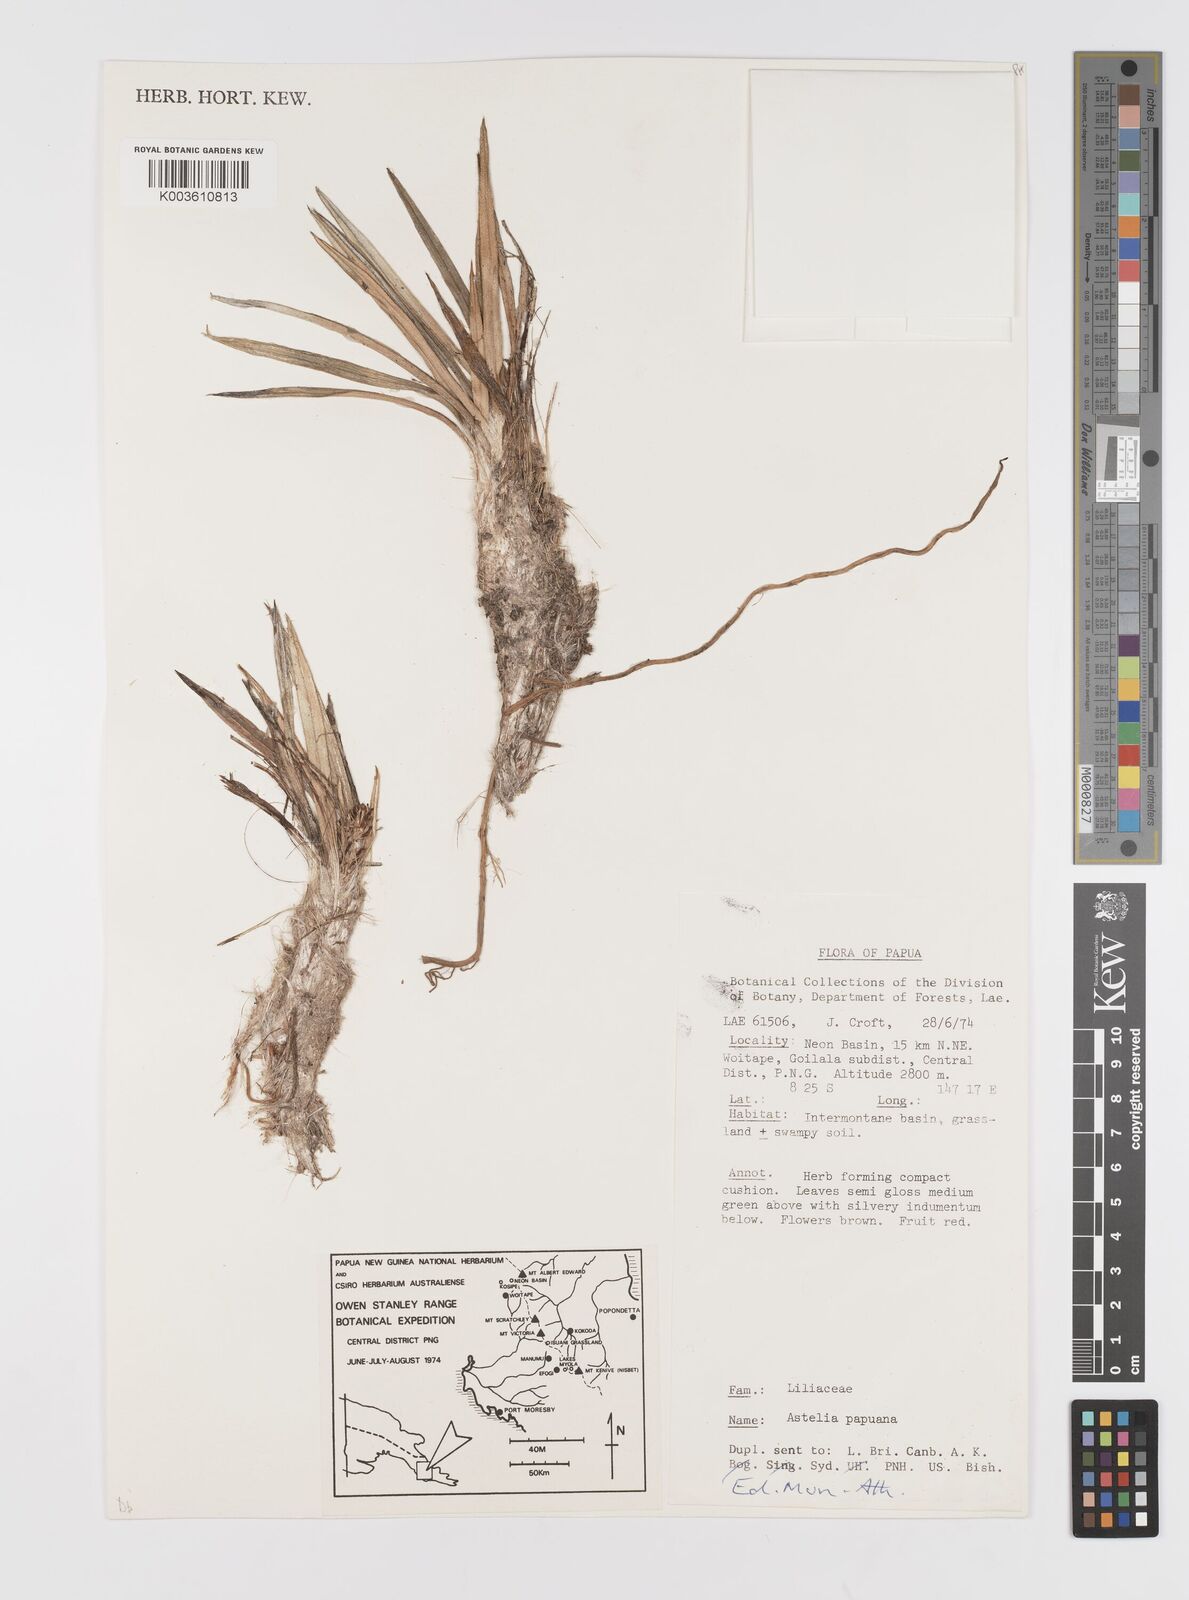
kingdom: Plantae
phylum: Tracheophyta
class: Liliopsida
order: Asparagales
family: Asteliaceae
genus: Astelia
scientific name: Astelia papuana
